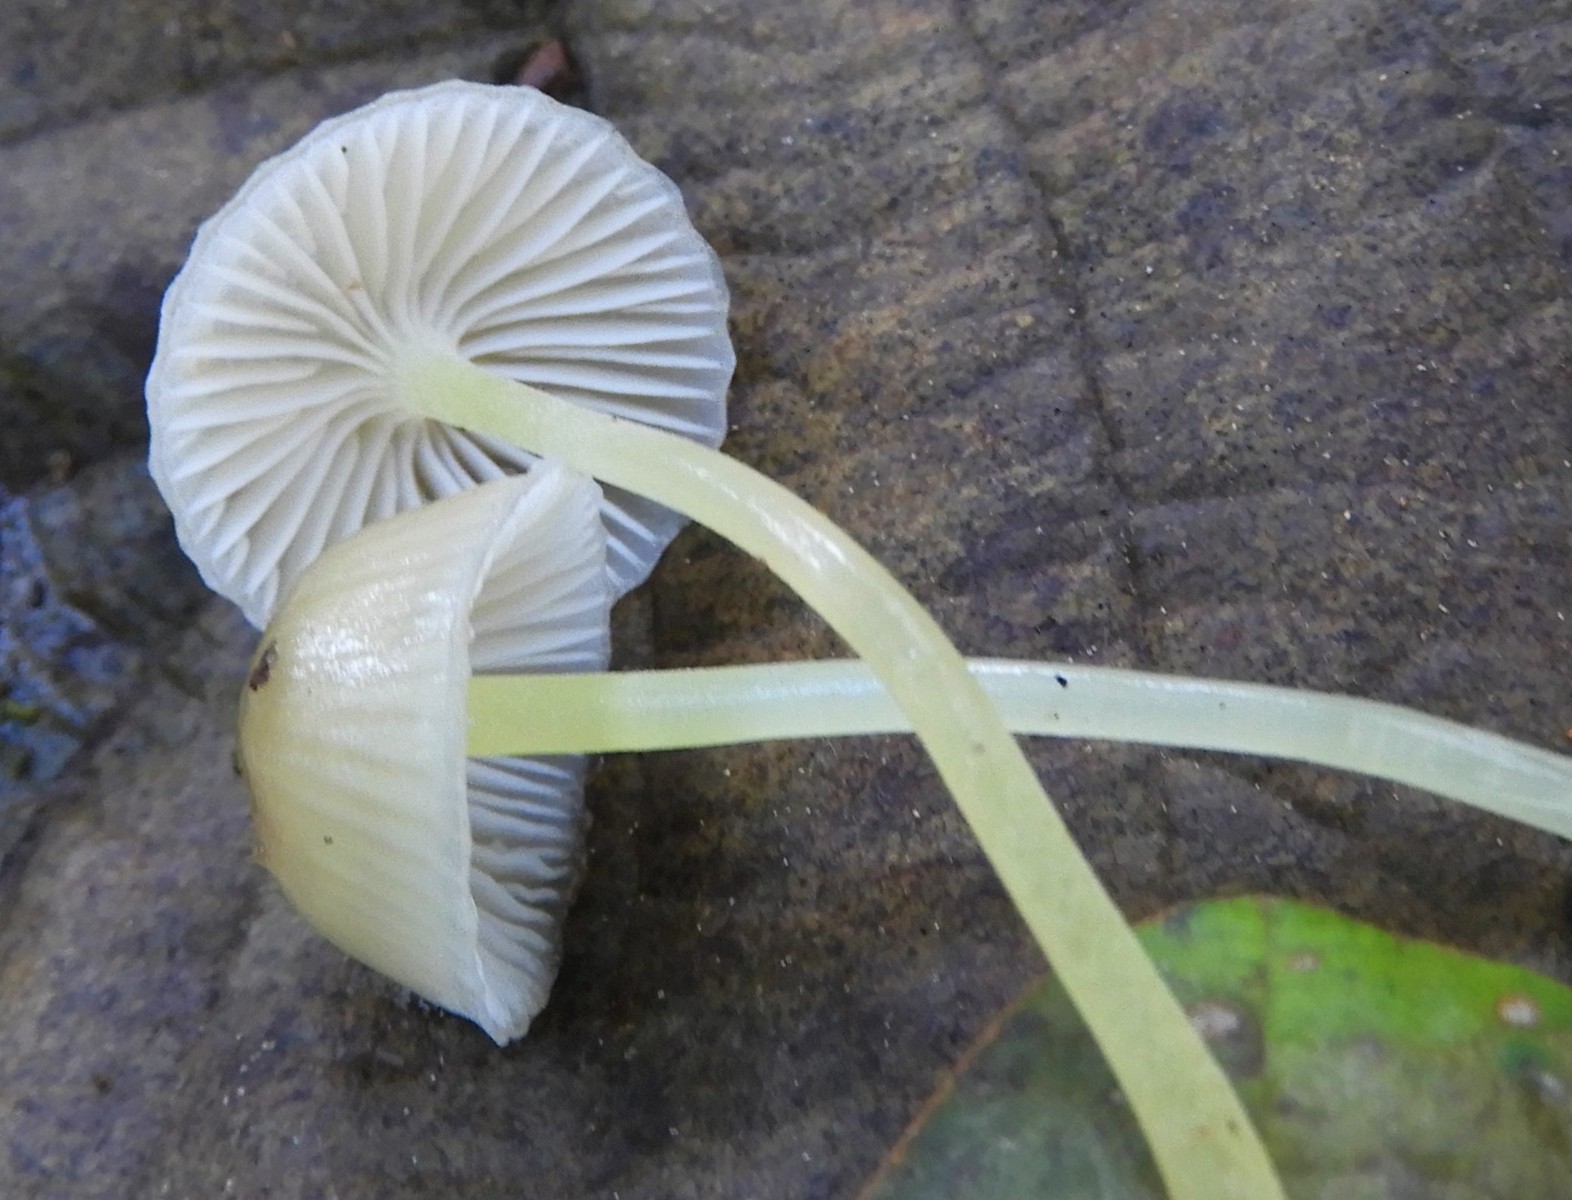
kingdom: Fungi
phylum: Basidiomycota
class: Agaricomycetes
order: Agaricales
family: Mycenaceae
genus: Mycena
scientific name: Mycena epipterygia
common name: gulstokket huesvamp
